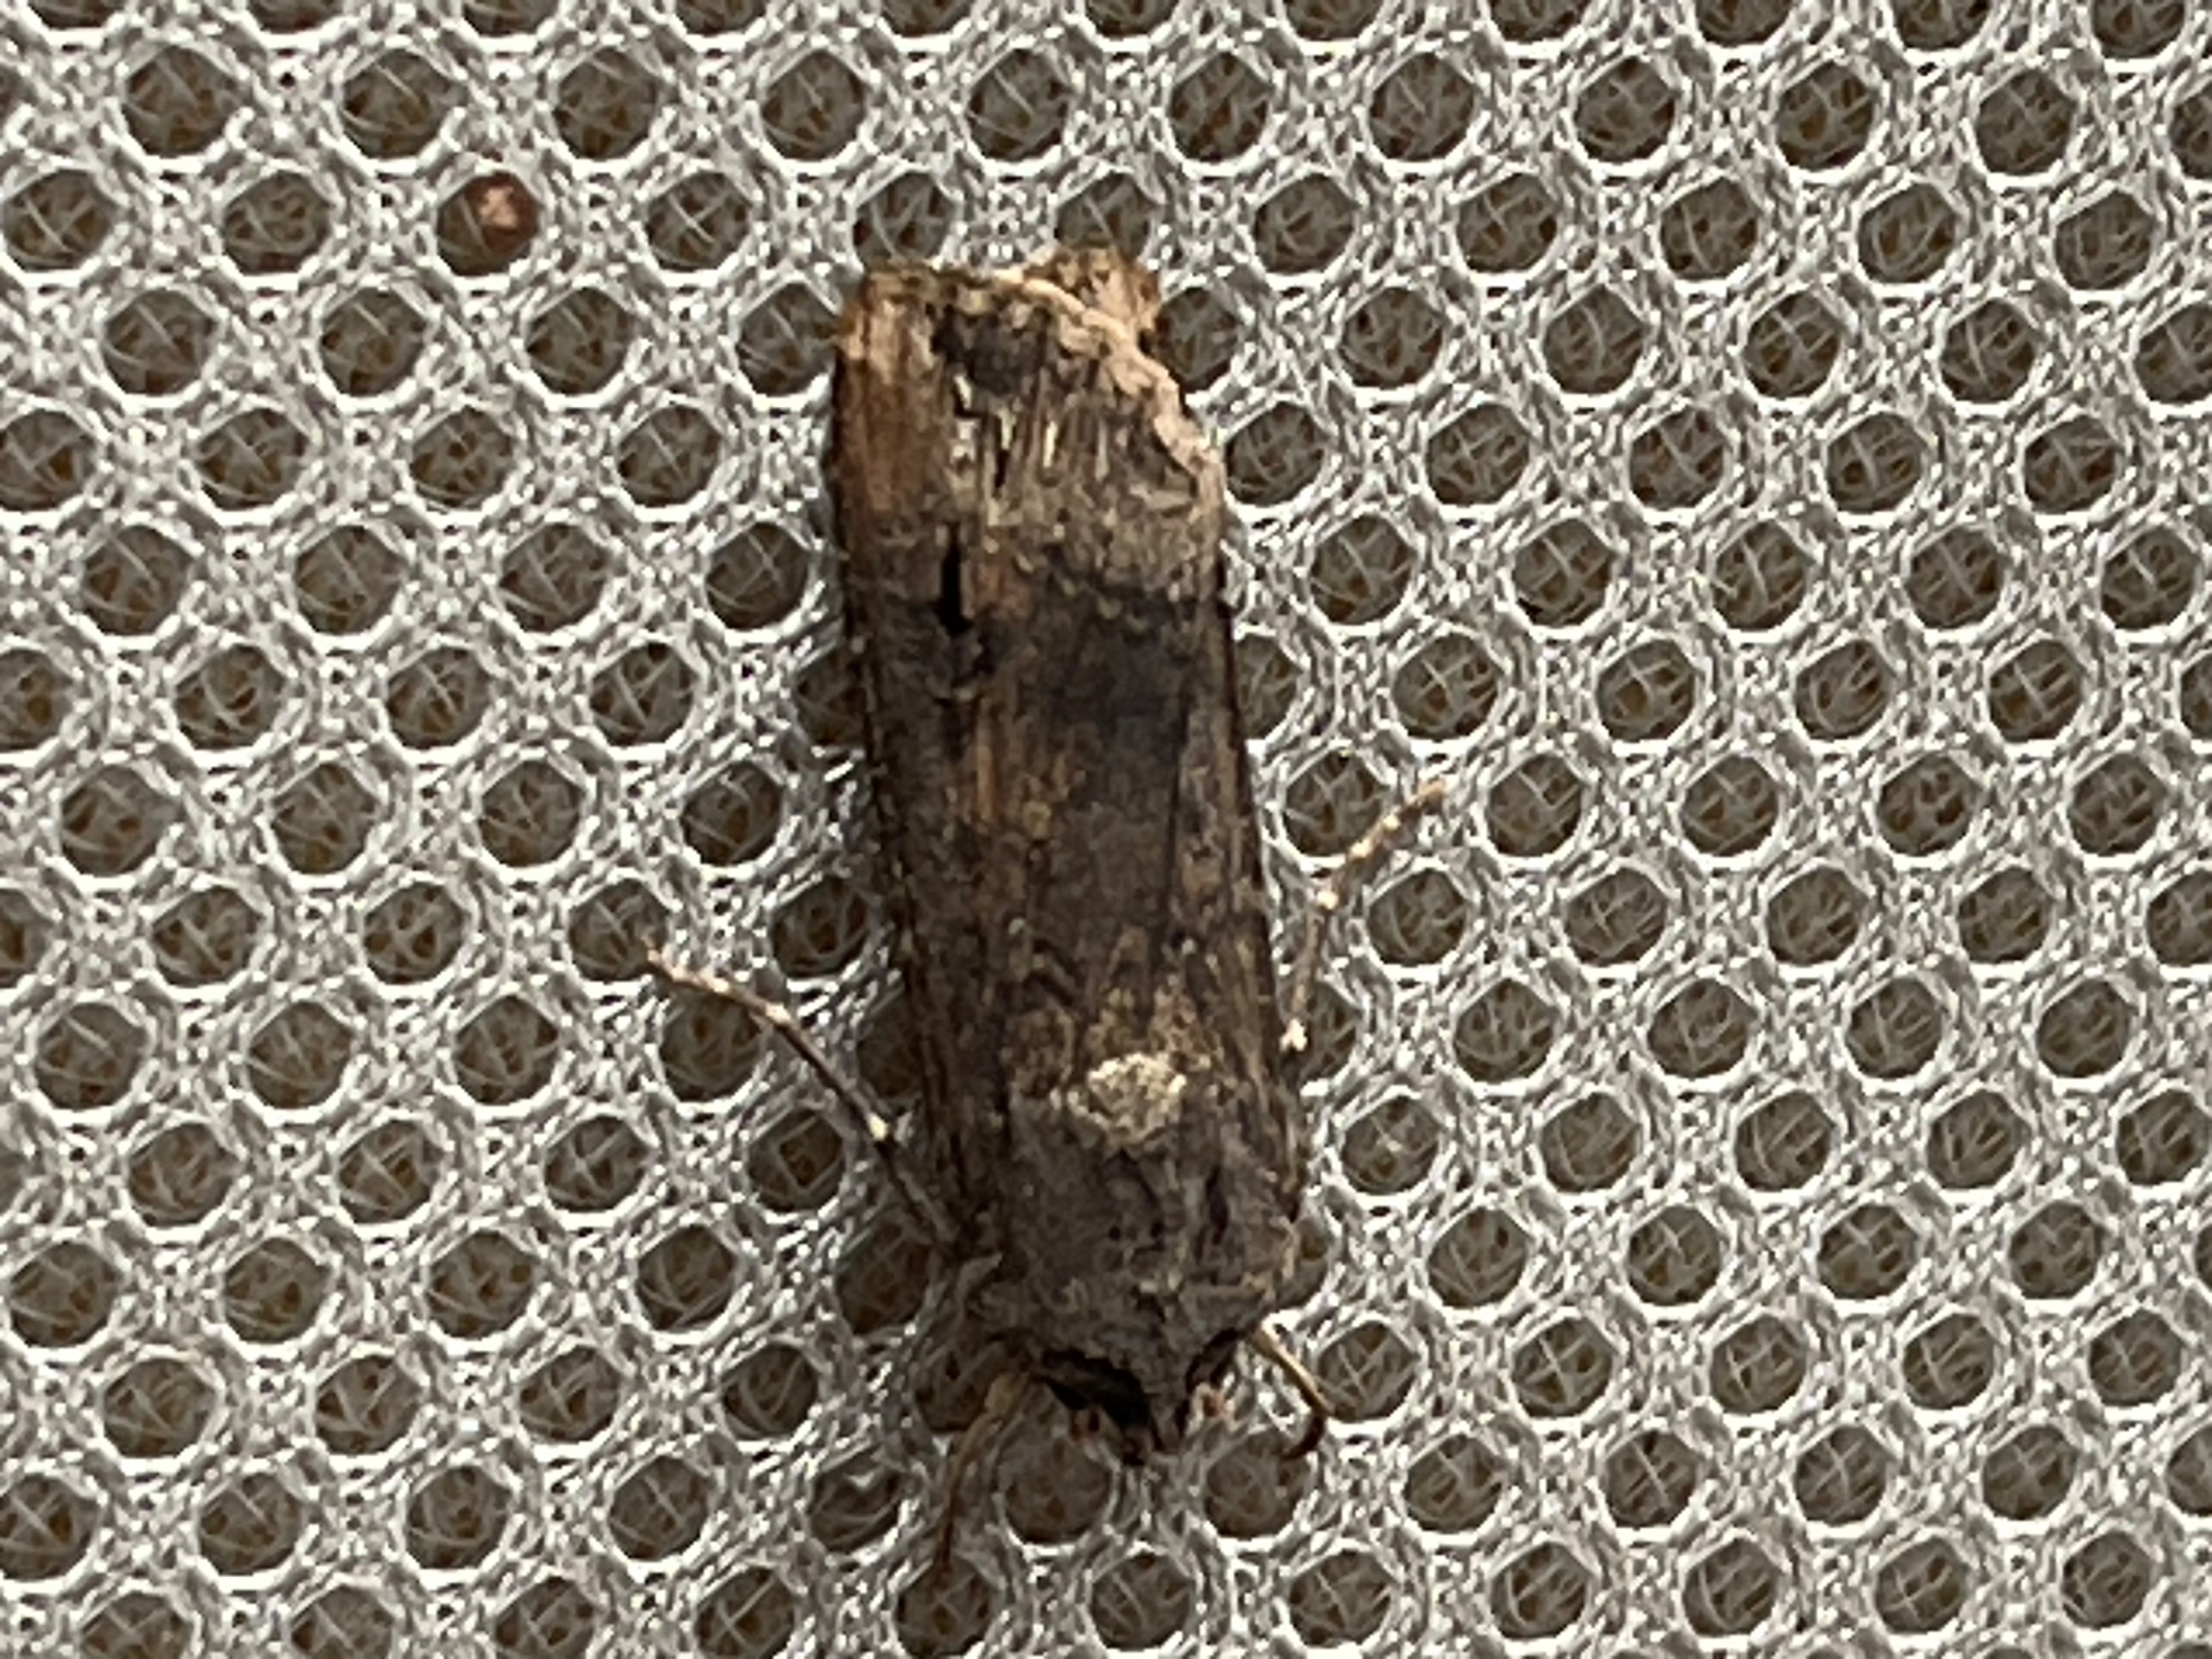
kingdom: Animalia
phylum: Arthropoda
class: Insecta
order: Lepidoptera
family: Noctuidae
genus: Agrotis
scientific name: Agrotis ipsilon
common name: Ypsilonugle
